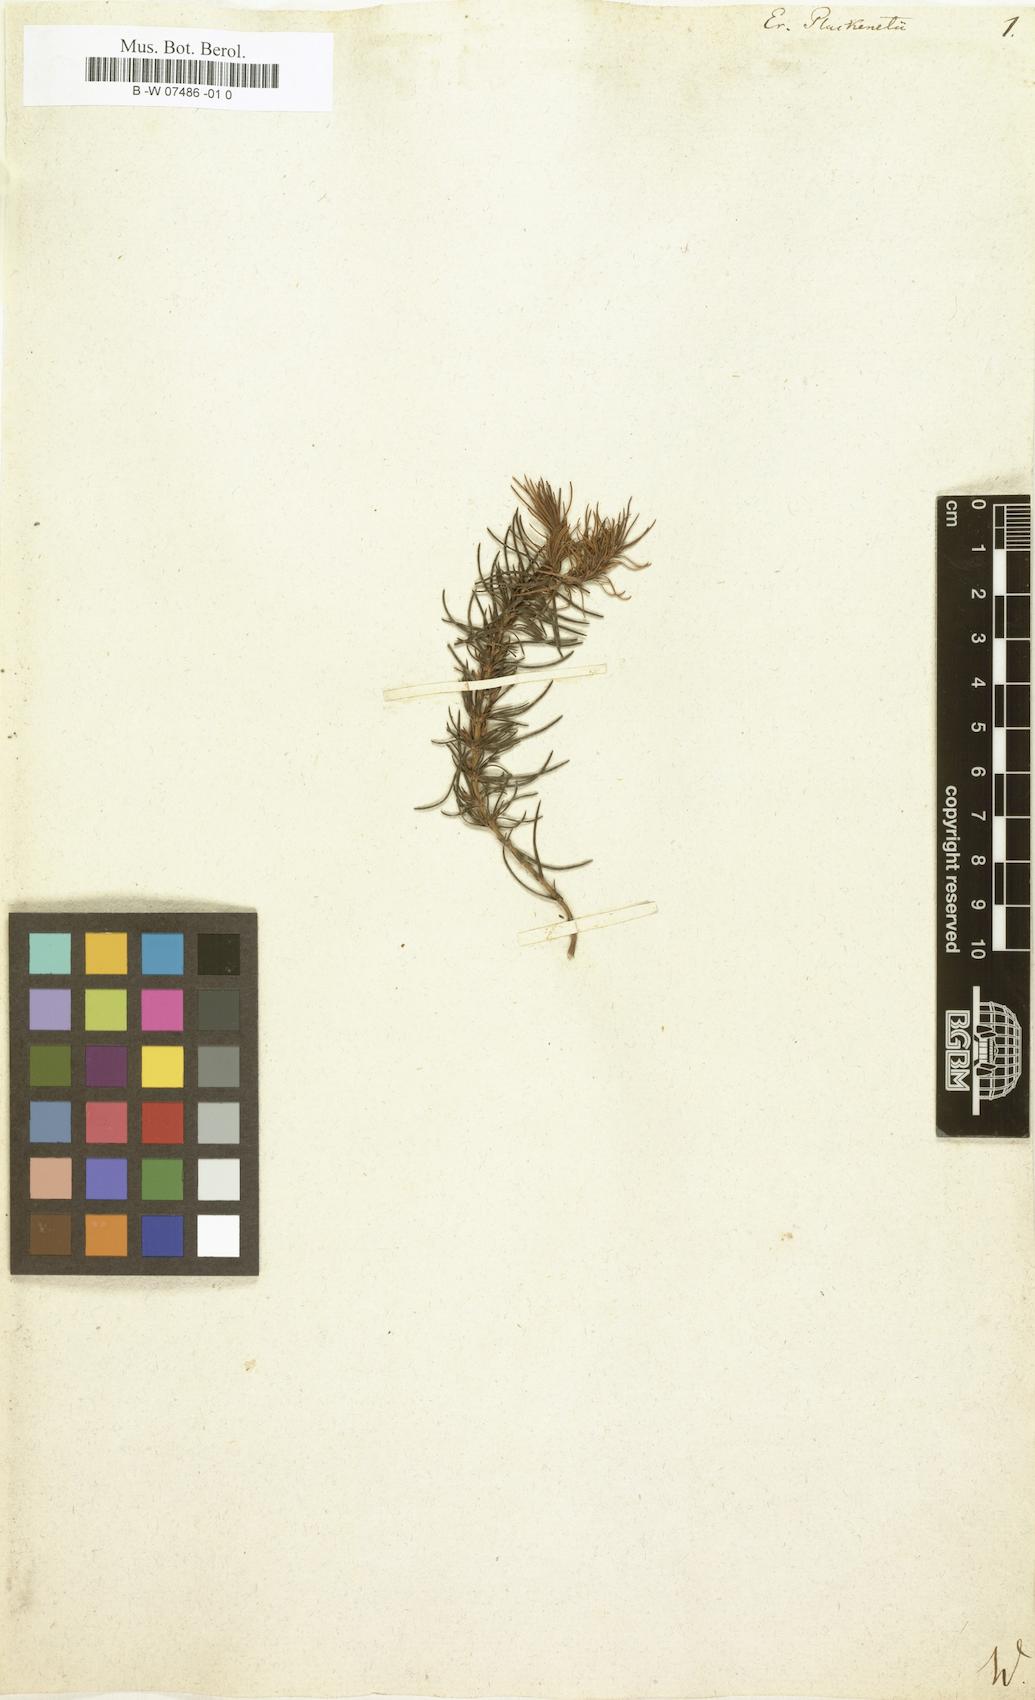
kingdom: Plantae
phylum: Tracheophyta
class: Magnoliopsida
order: Ericales
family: Ericaceae
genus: Erica
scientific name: Erica plukenetii
